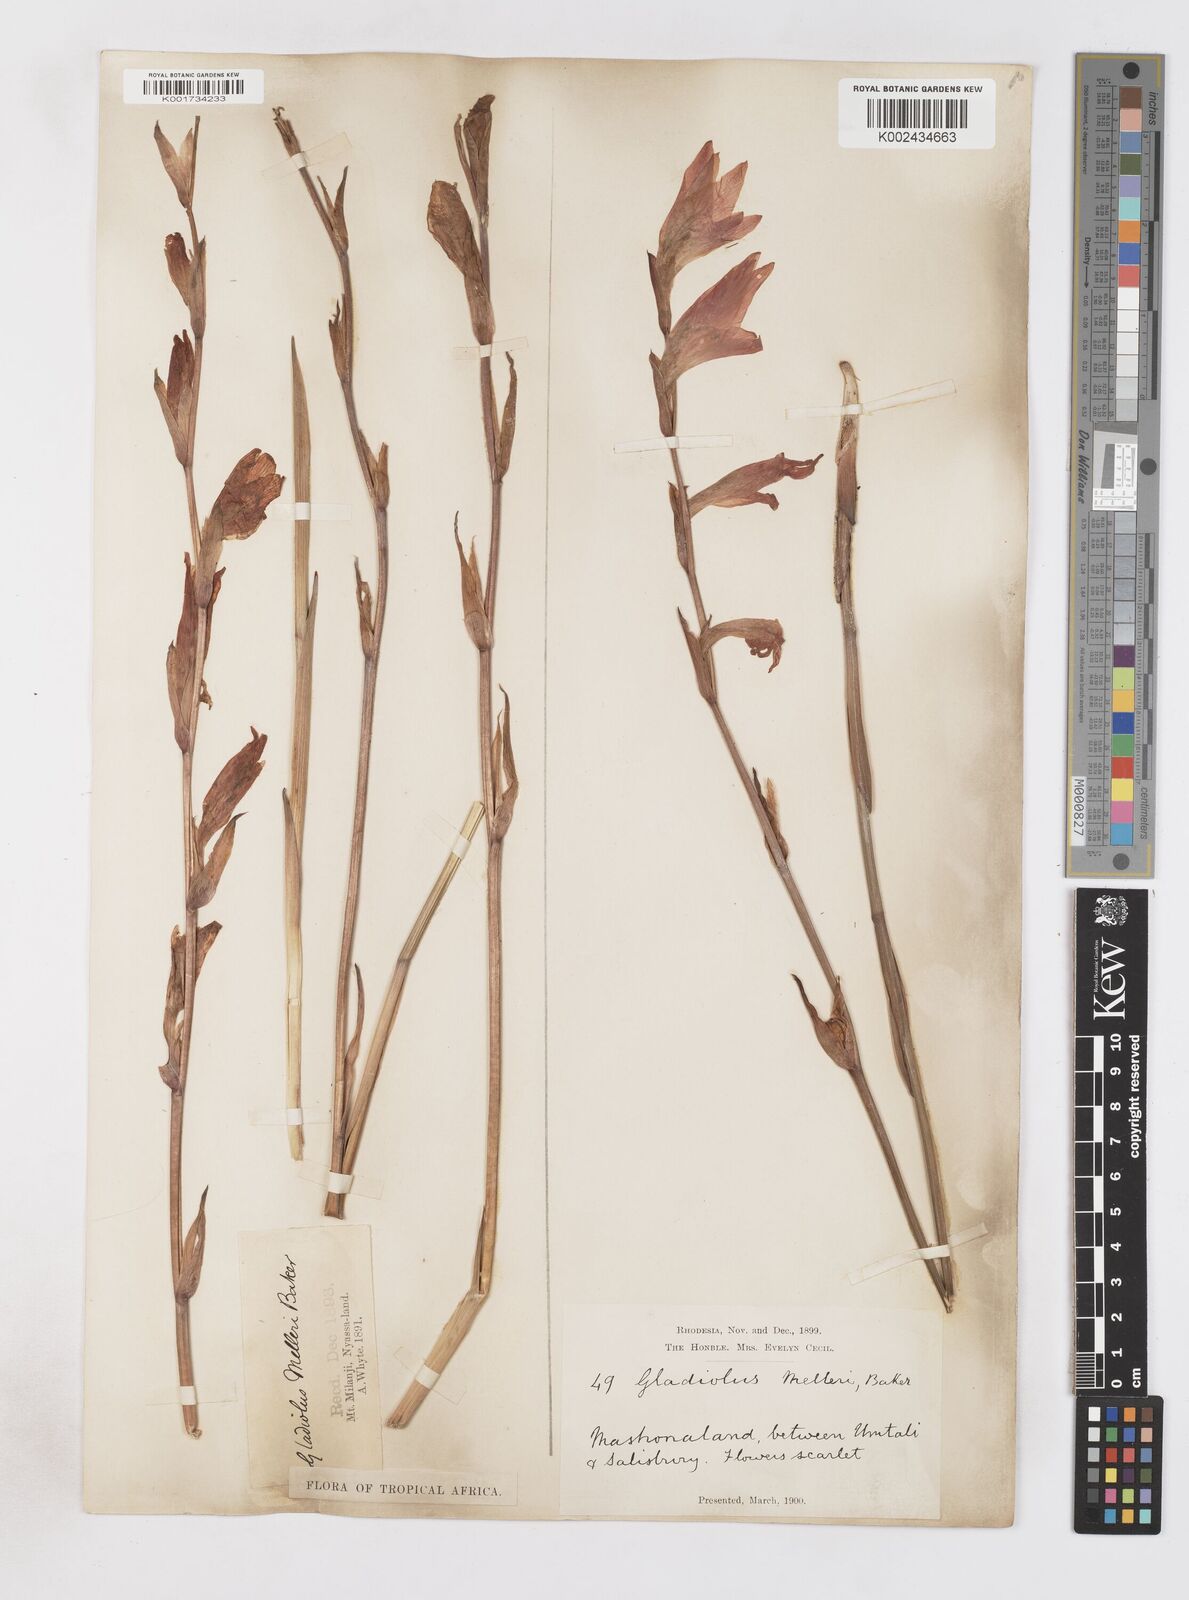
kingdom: Plantae
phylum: Tracheophyta
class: Liliopsida
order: Asparagales
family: Iridaceae
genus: Gladiolus
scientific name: Gladiolus melleri
